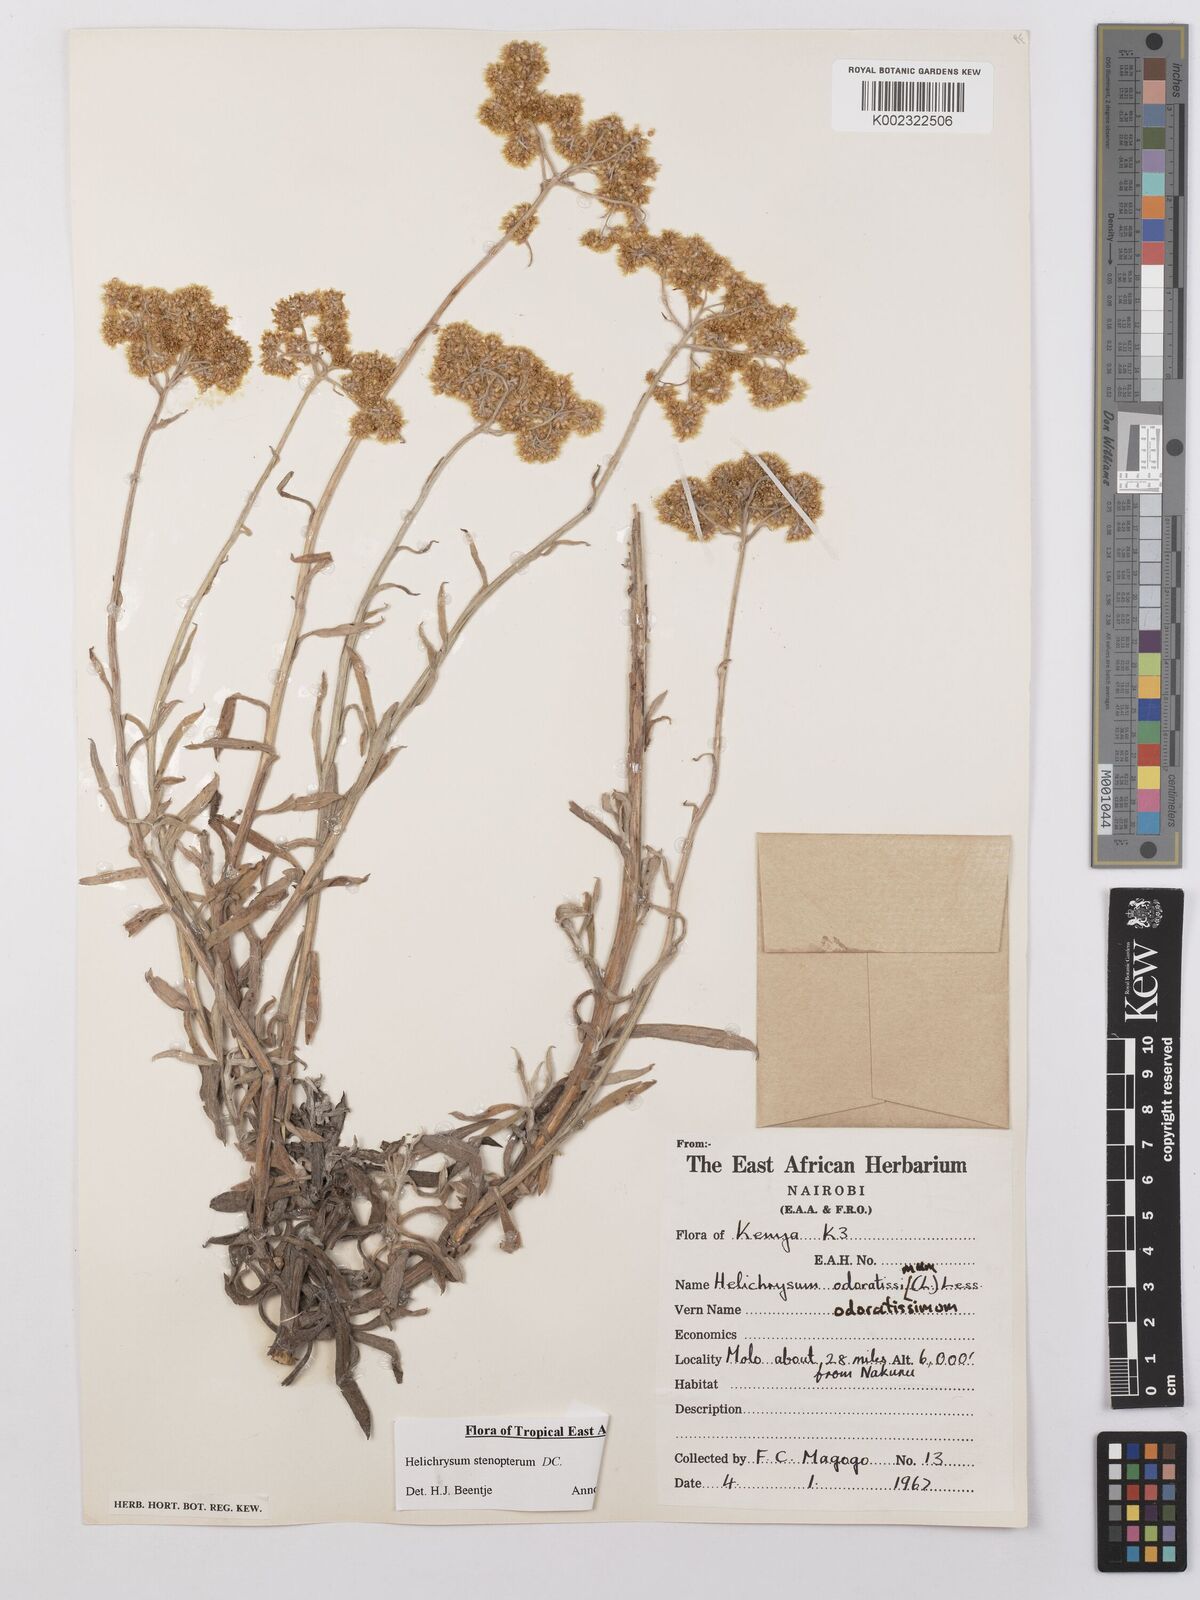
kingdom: Plantae
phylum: Tracheophyta
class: Magnoliopsida
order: Asterales
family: Asteraceae
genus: Helichrysum
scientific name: Helichrysum stenopterum
